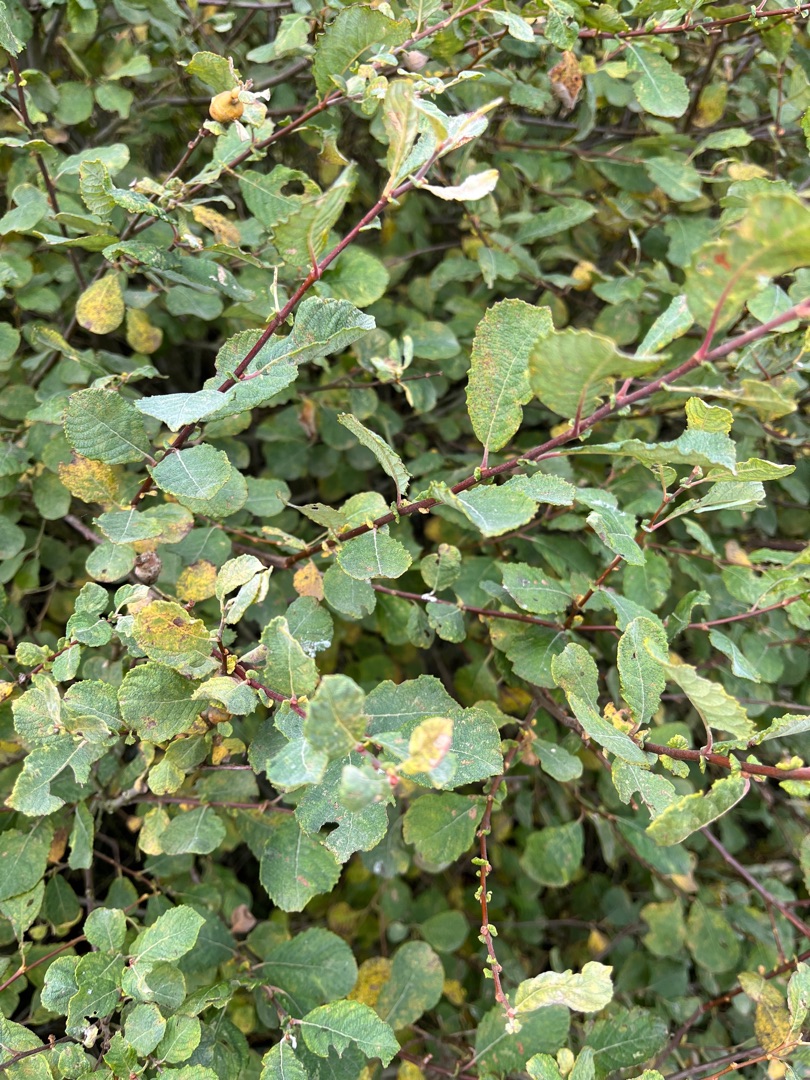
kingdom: Plantae
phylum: Tracheophyta
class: Magnoliopsida
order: Malpighiales
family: Salicaceae
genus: Salix
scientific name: Salix aurita
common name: Øret pil
